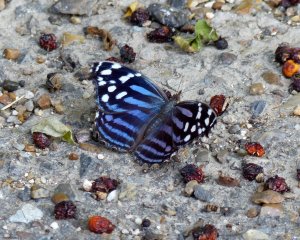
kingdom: Animalia
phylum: Arthropoda
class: Insecta
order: Lepidoptera
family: Nymphalidae
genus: Myscelia
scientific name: Myscelia ethusa
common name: Mexican Bluewing
